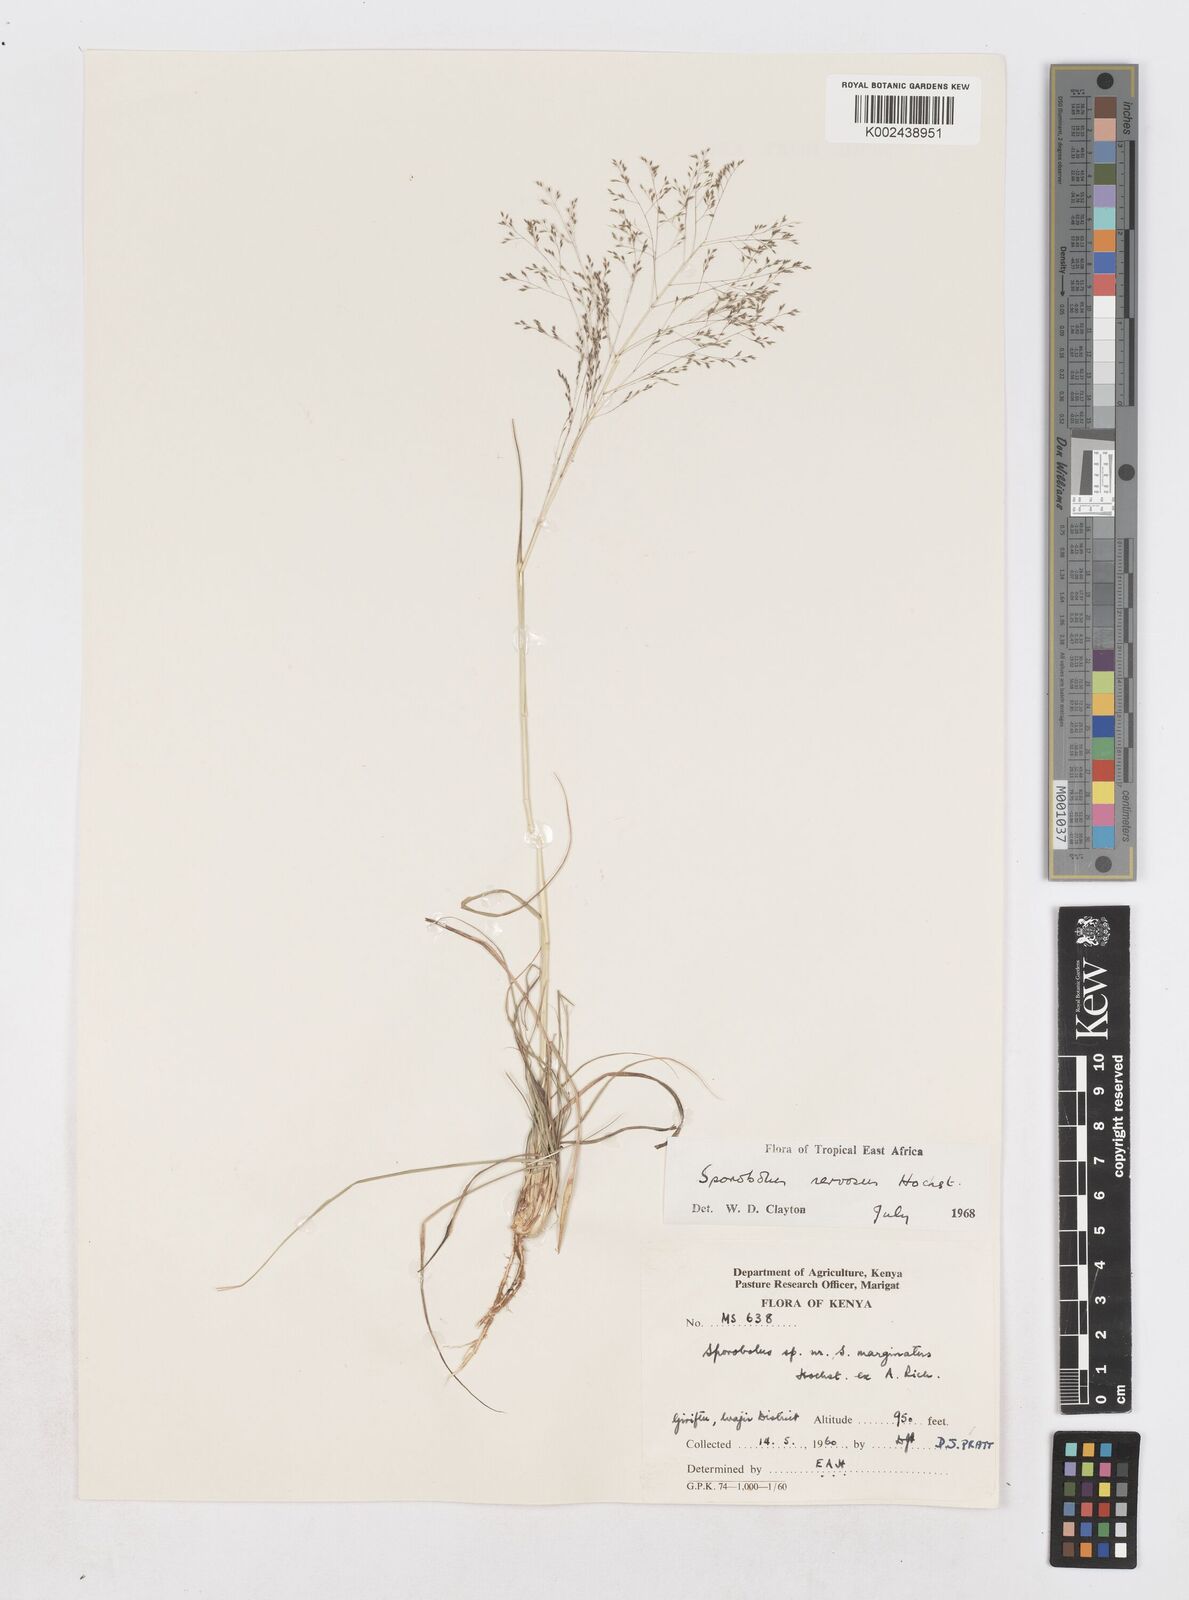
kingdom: Plantae
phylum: Tracheophyta
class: Liliopsida
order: Poales
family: Poaceae
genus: Sporobolus
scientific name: Sporobolus nervosus
